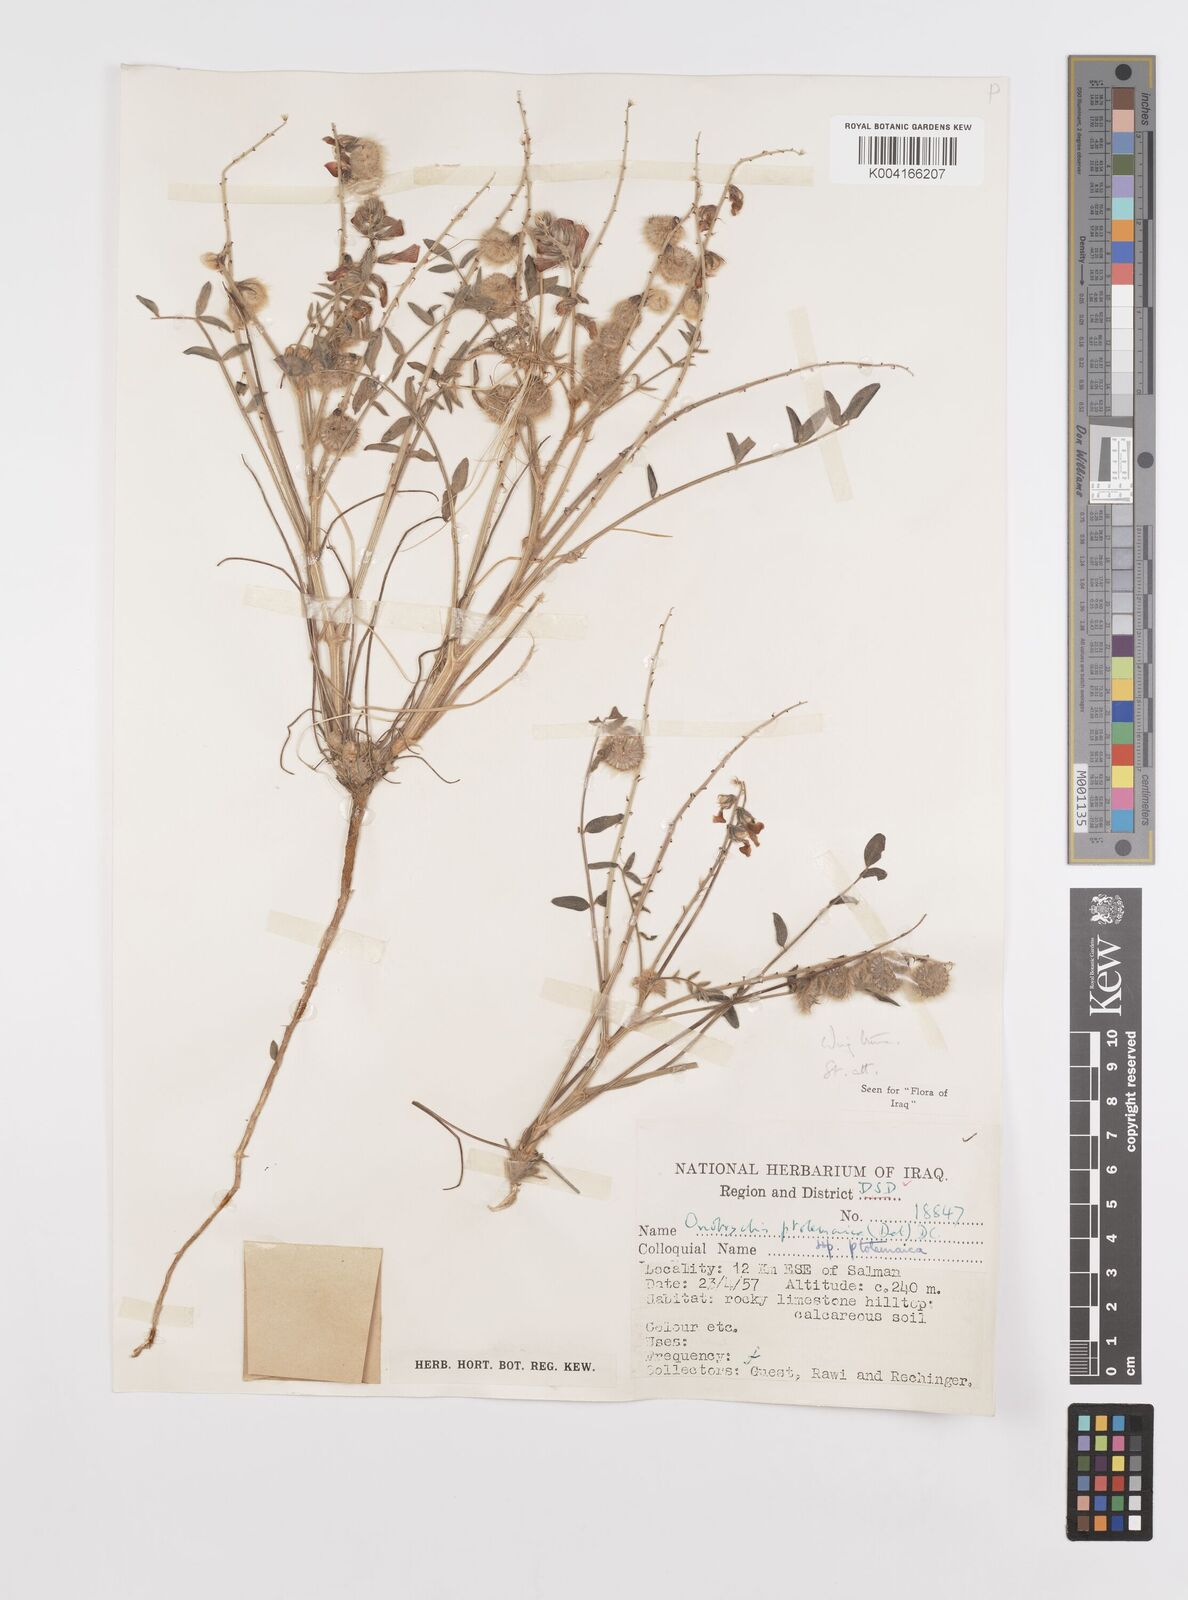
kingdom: Plantae
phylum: Tracheophyta
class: Magnoliopsida
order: Fabales
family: Fabaceae
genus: Onobrychis
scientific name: Onobrychis ptolemaica
